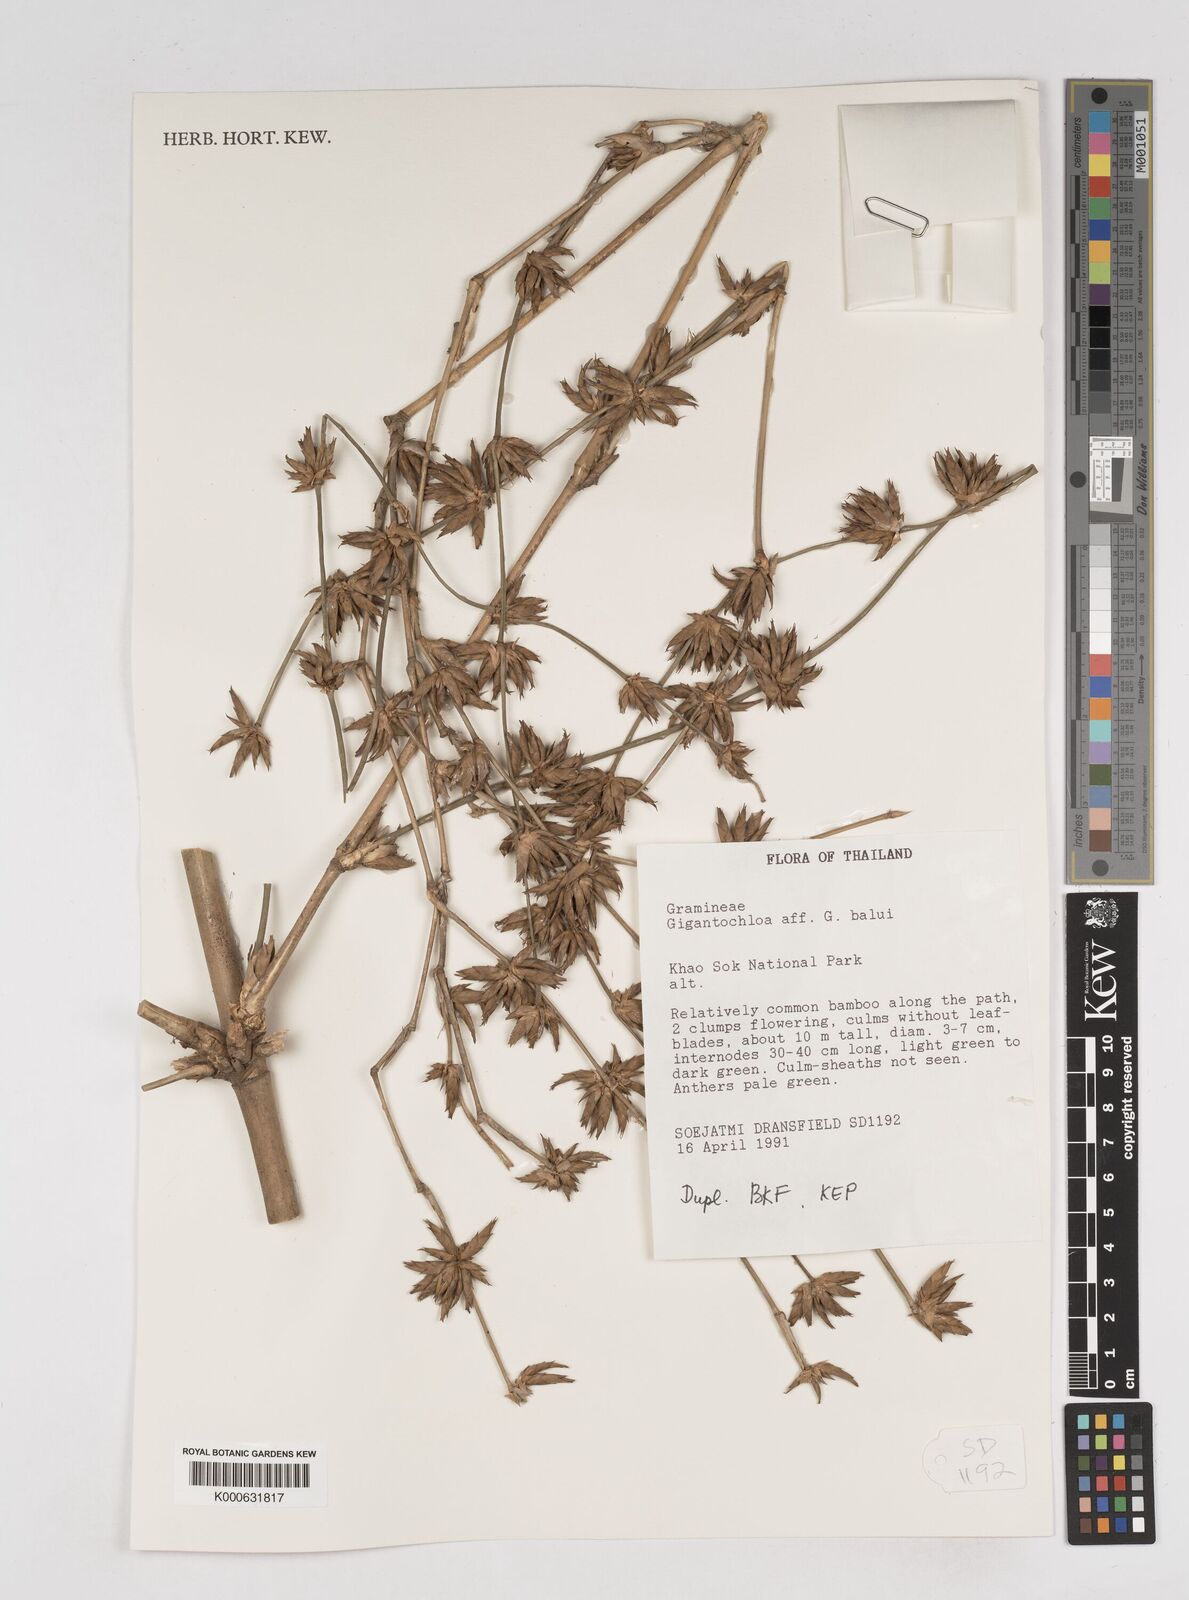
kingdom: Plantae
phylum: Tracheophyta
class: Liliopsida
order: Poales
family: Poaceae
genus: Gigantochloa
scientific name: Gigantochloa
